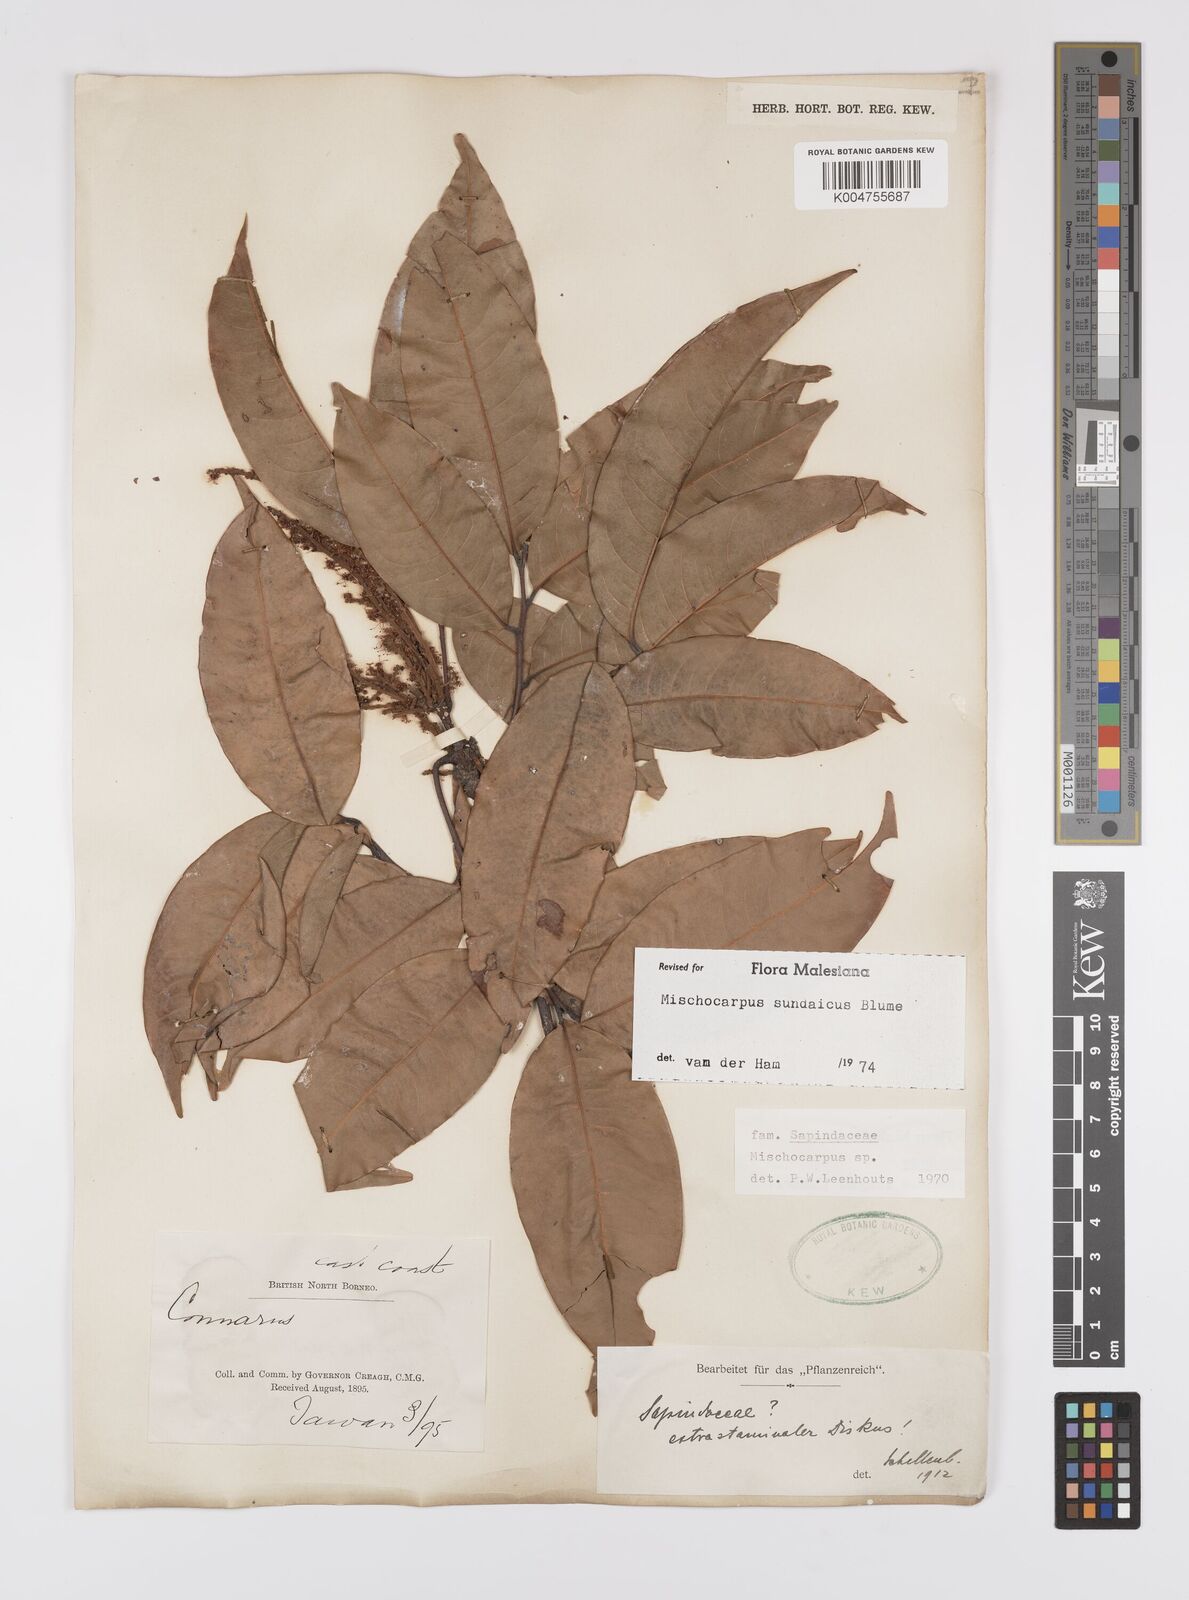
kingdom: Plantae
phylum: Tracheophyta
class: Magnoliopsida
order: Sapindales
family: Sapindaceae
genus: Mischocarpus
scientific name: Mischocarpus sundaicus
